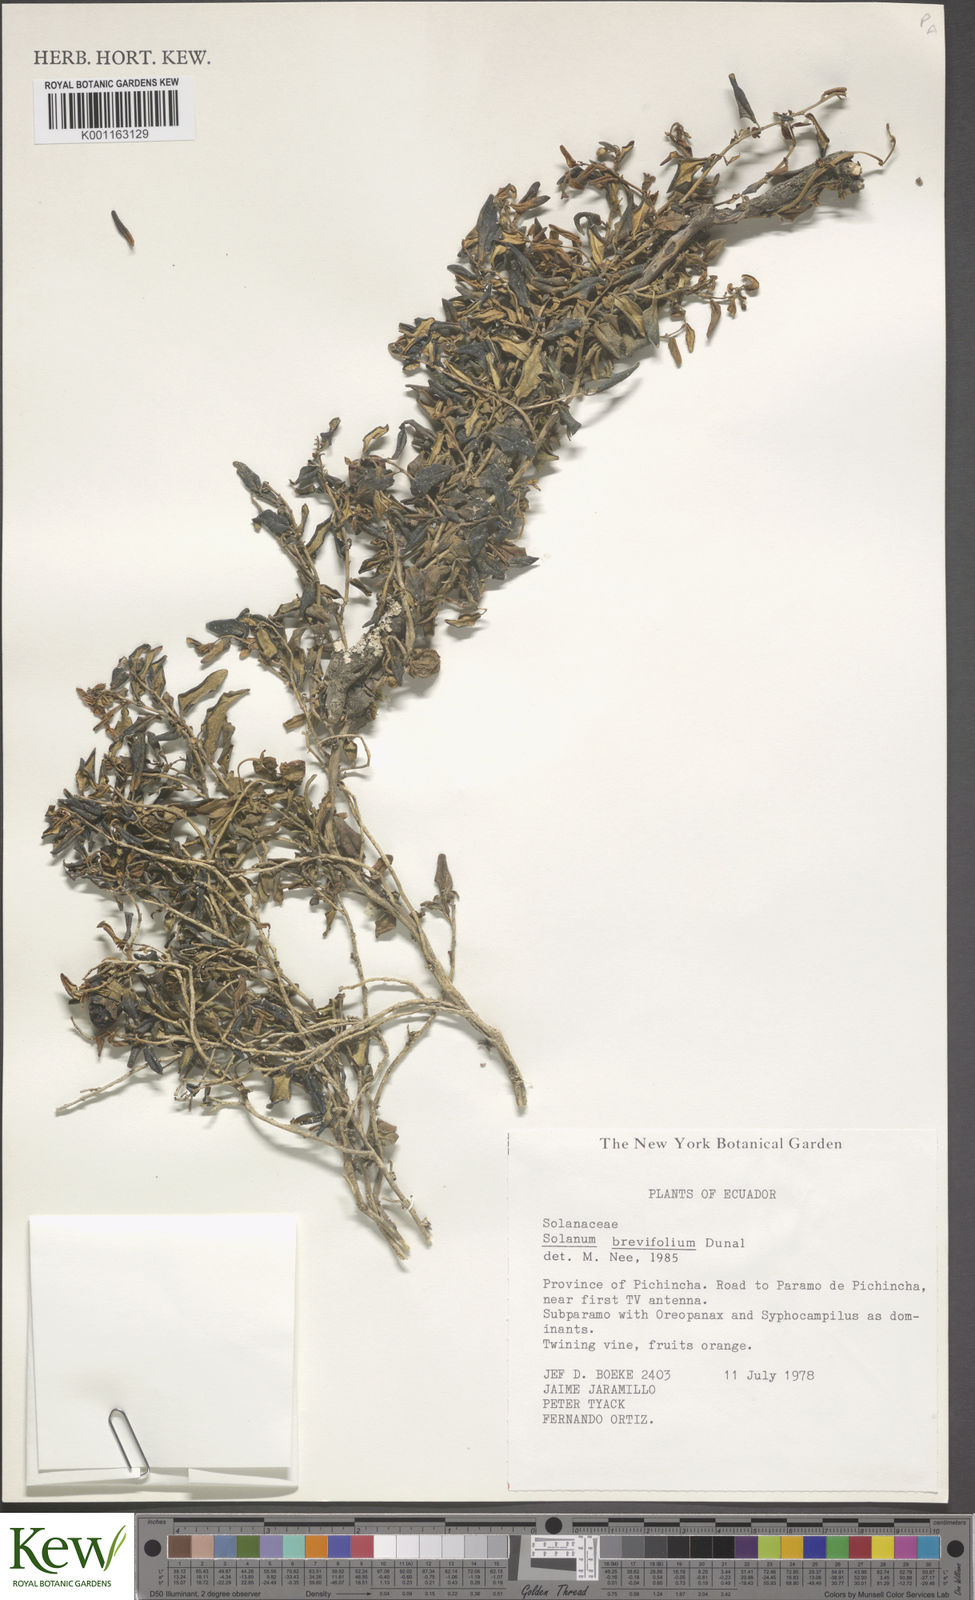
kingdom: Plantae
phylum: Tracheophyta
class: Magnoliopsida
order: Solanales
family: Solanaceae
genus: Solanum
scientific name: Solanum brevifolium
